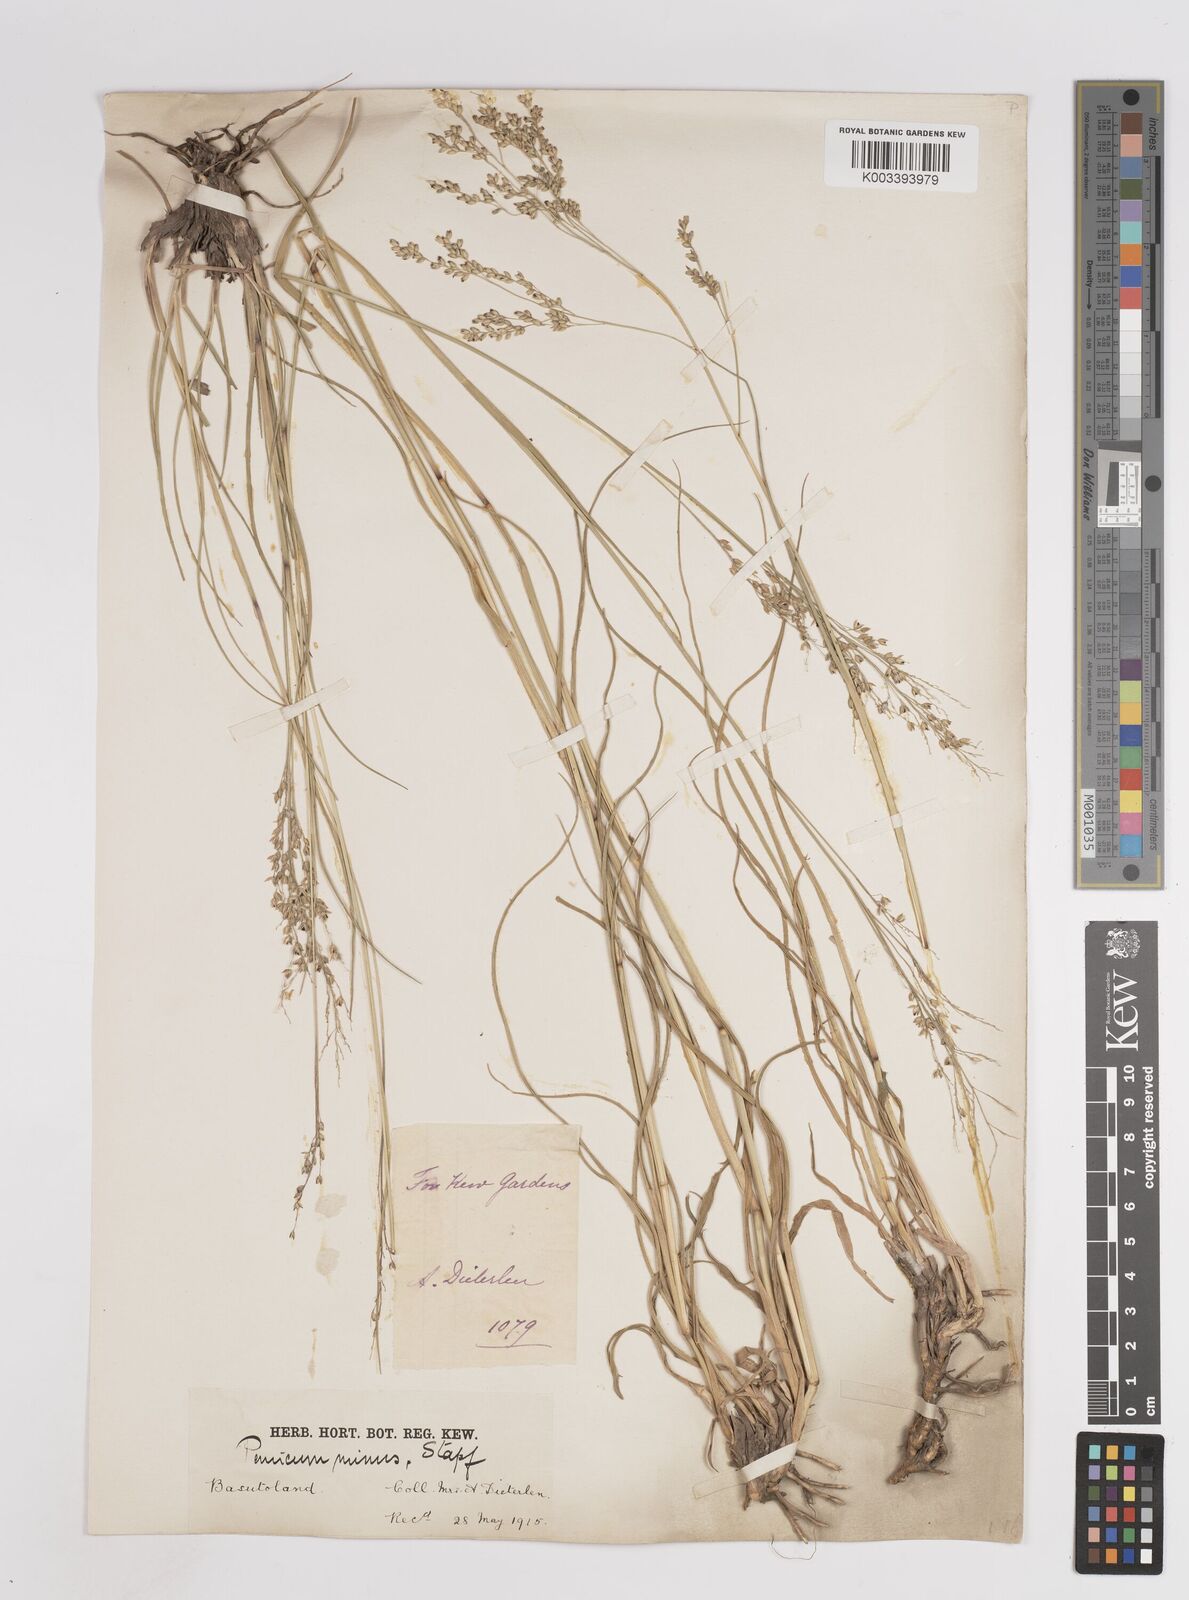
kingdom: Plantae
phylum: Tracheophyta
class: Liliopsida
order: Poales
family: Poaceae
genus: Panicum
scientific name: Panicum coloratum
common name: Kleingrass
